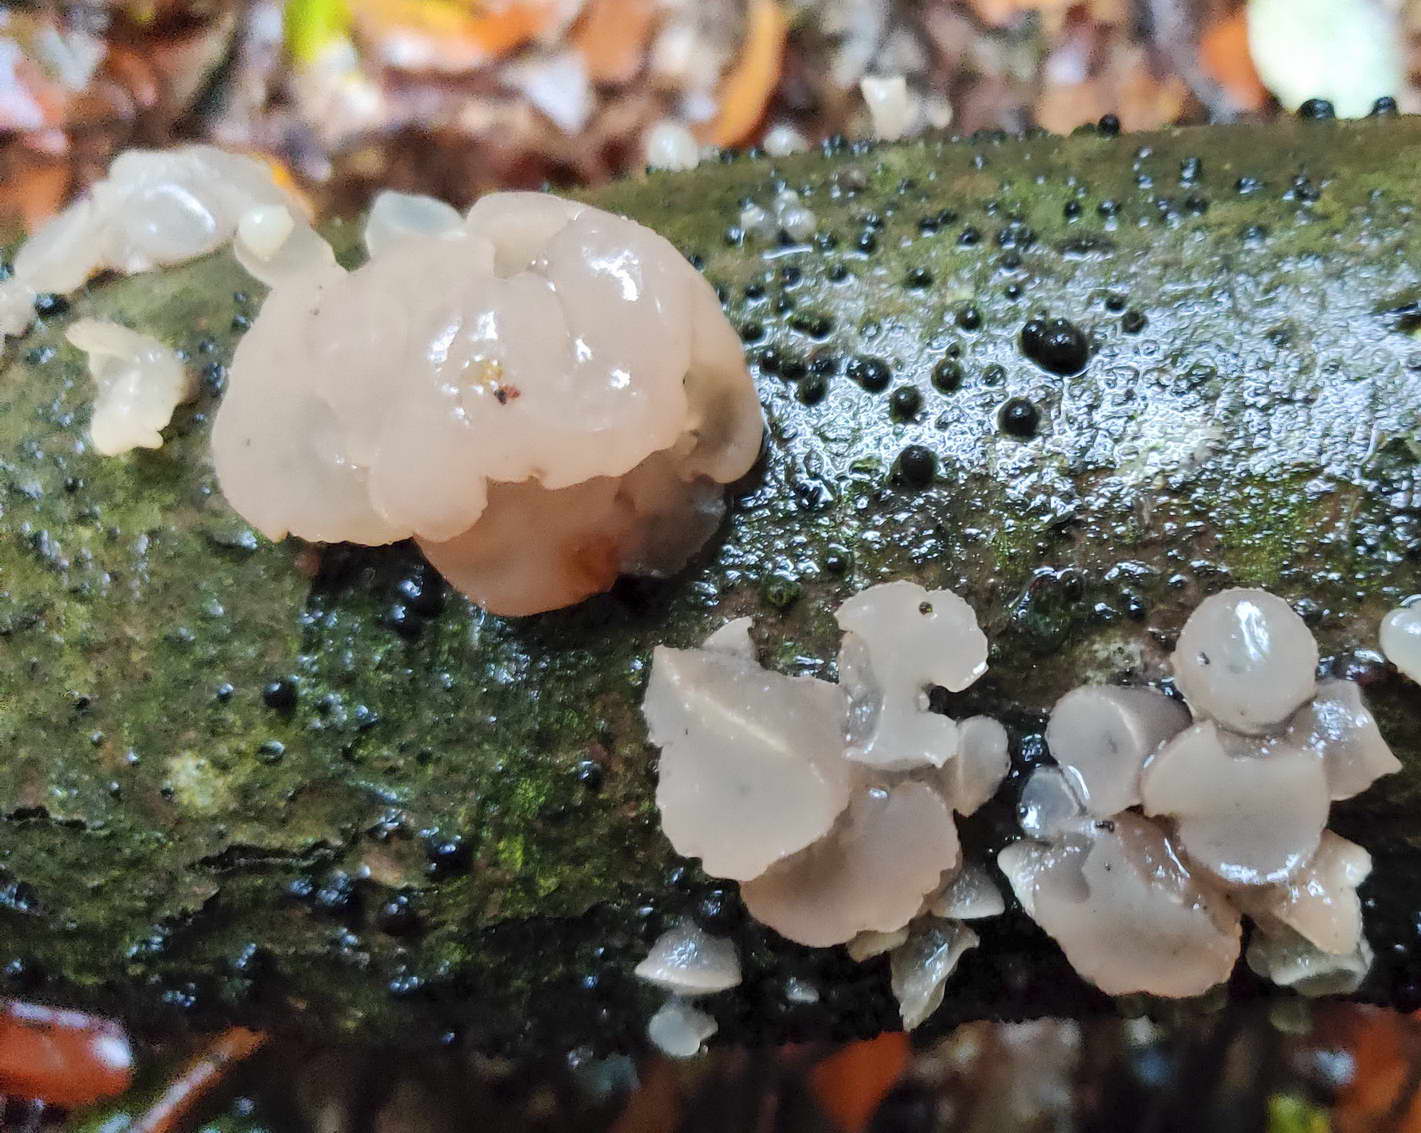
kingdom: Fungi
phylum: Ascomycota
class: Leotiomycetes
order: Helotiales
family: Gelatinodiscaceae
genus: Neobulgaria
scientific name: Neobulgaria pura
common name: bleg bævreskive
